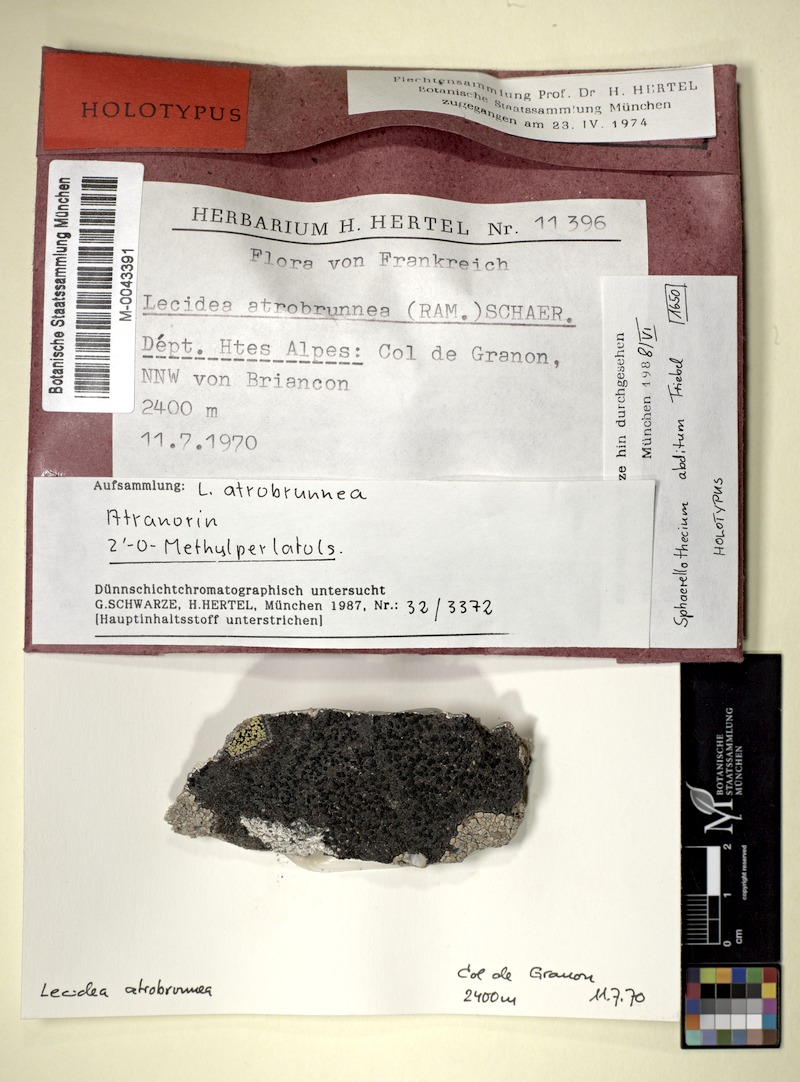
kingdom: Fungi
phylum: Ascomycota
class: Lecanoromycetes
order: Lecideales
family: Lecideaceae
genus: Lecidea
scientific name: Lecidea atrobrunnea
